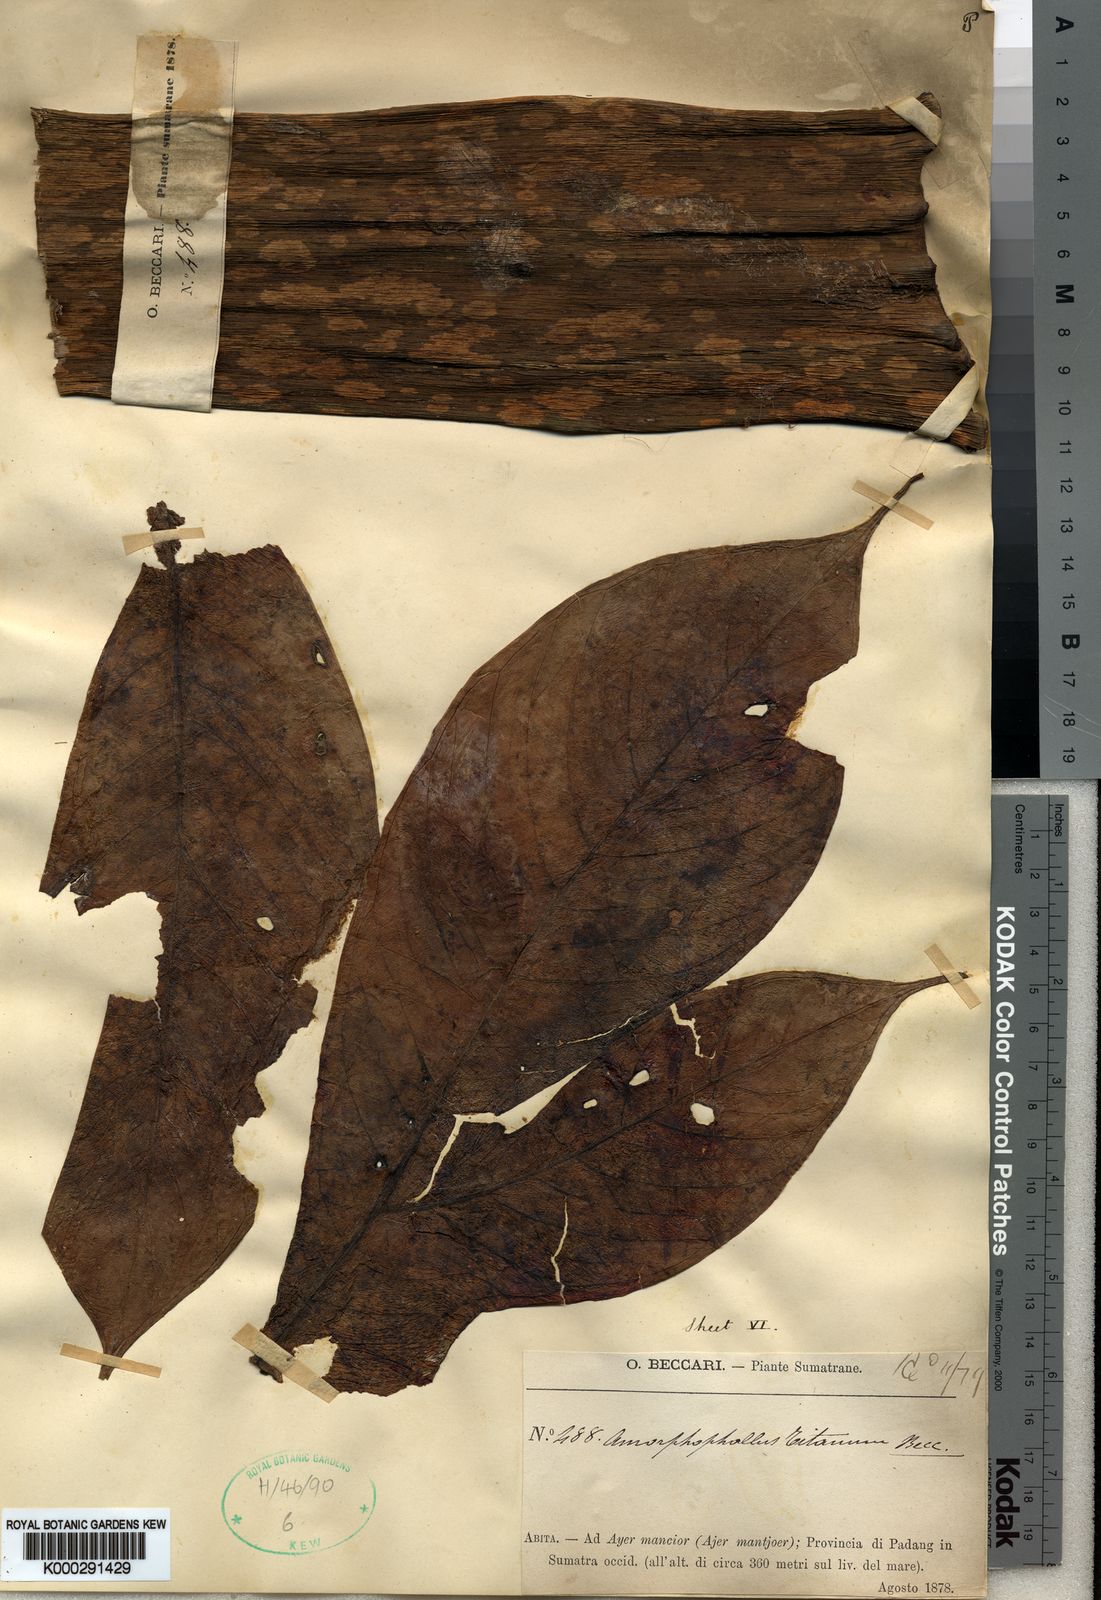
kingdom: Plantae
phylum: Tracheophyta
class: Liliopsida
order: Alismatales
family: Araceae
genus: Amorphophallus
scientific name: Amorphophallus titanum
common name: Titan arum
